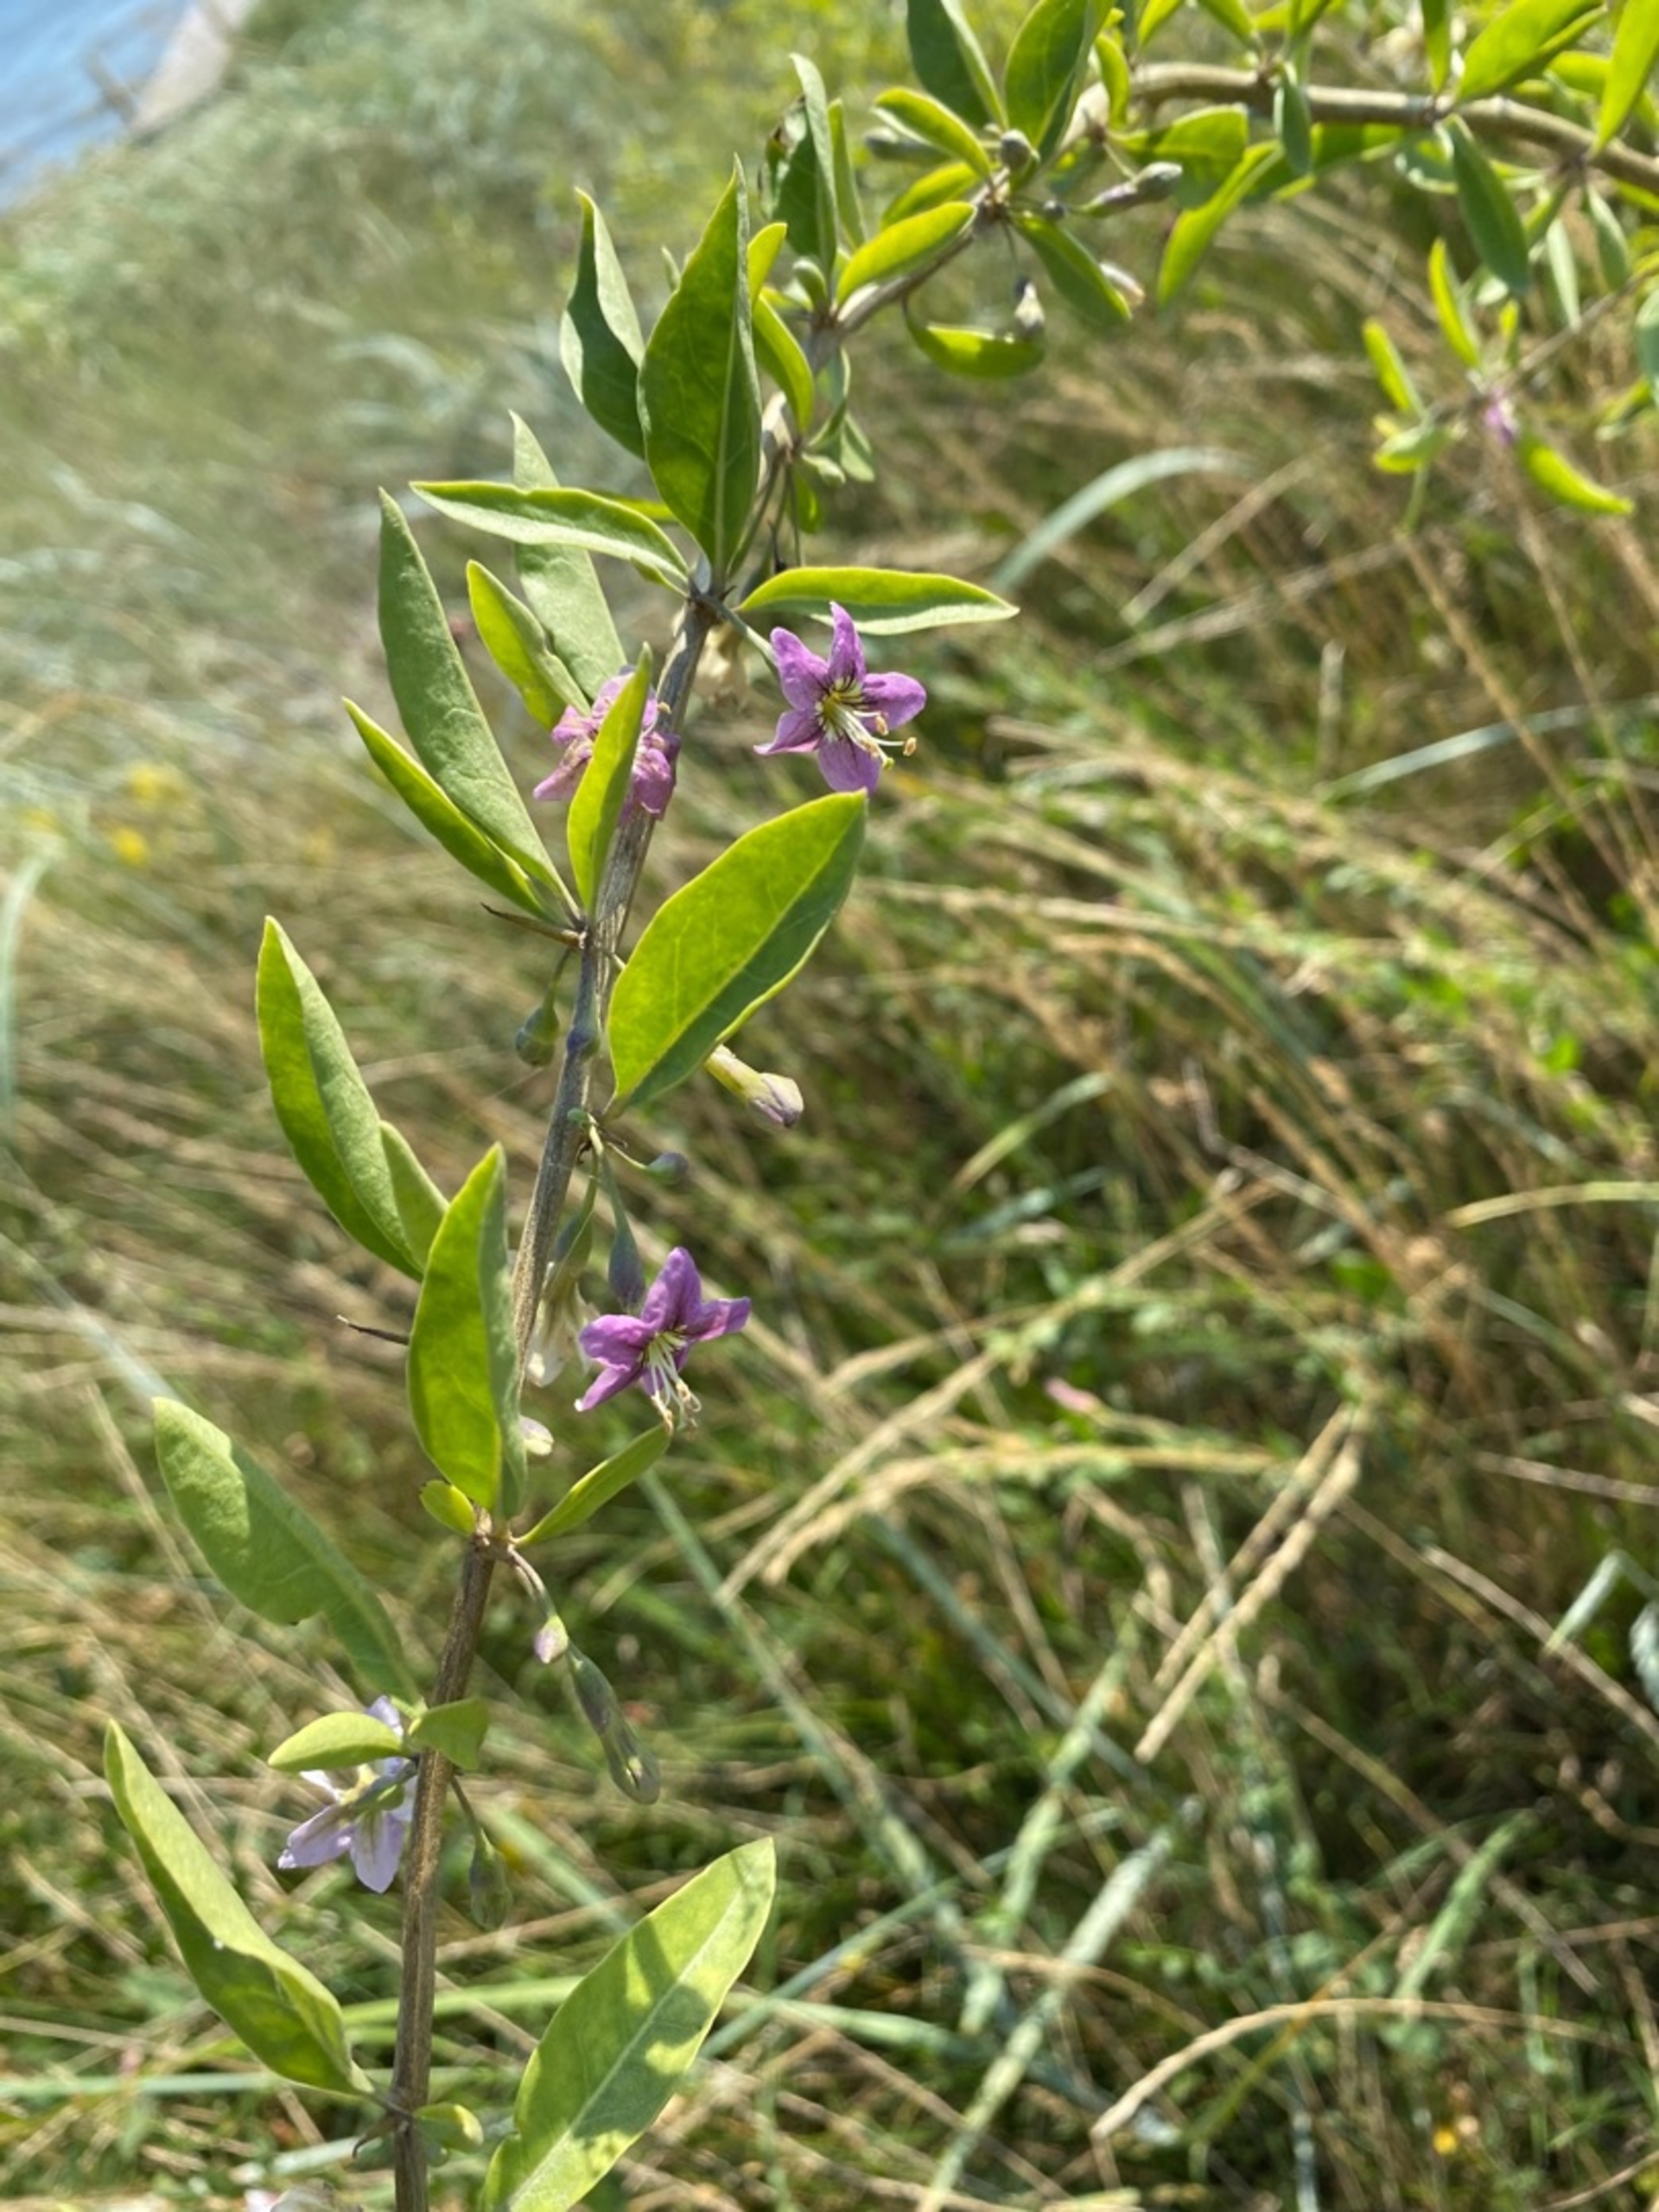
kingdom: Plantae
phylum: Tracheophyta
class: Magnoliopsida
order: Solanales
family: Solanaceae
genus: Lycium
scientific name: Lycium barbarum
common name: Bukketorn
